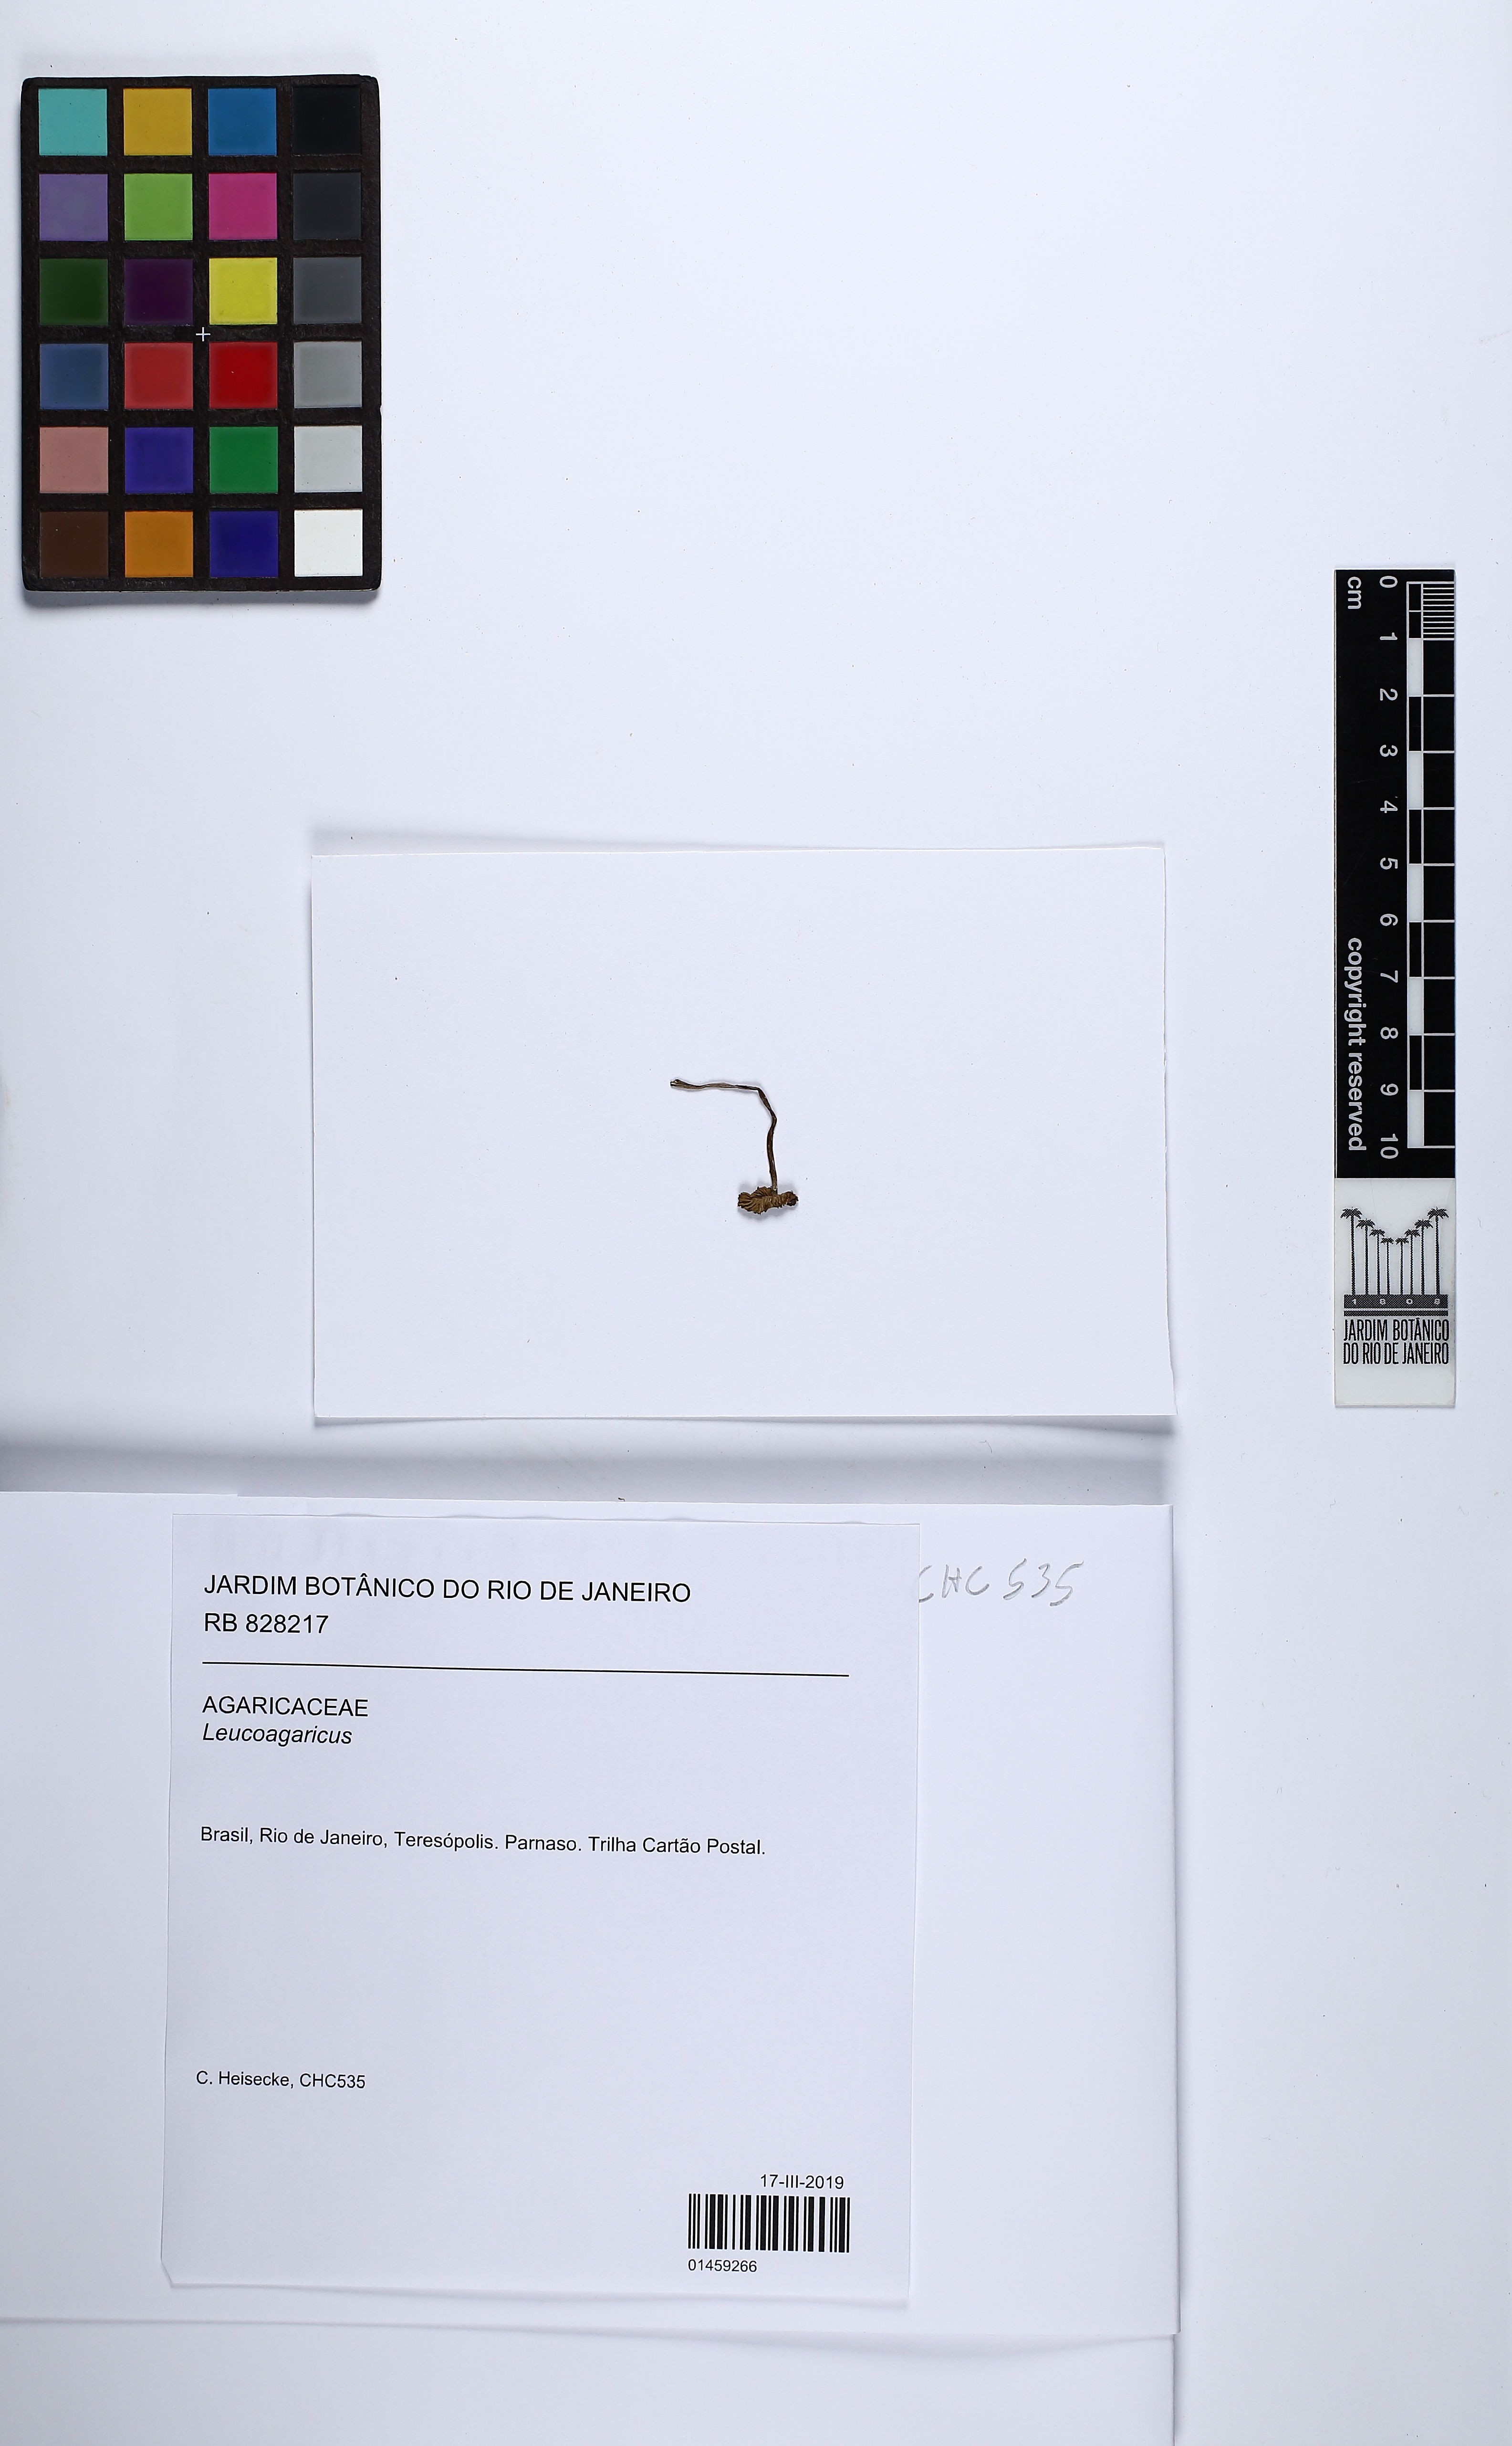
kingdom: Fungi
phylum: Basidiomycota
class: Agaricomycetes
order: Agaricales
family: Agaricaceae
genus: Leucoagaricus
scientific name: Leucoagaricus
